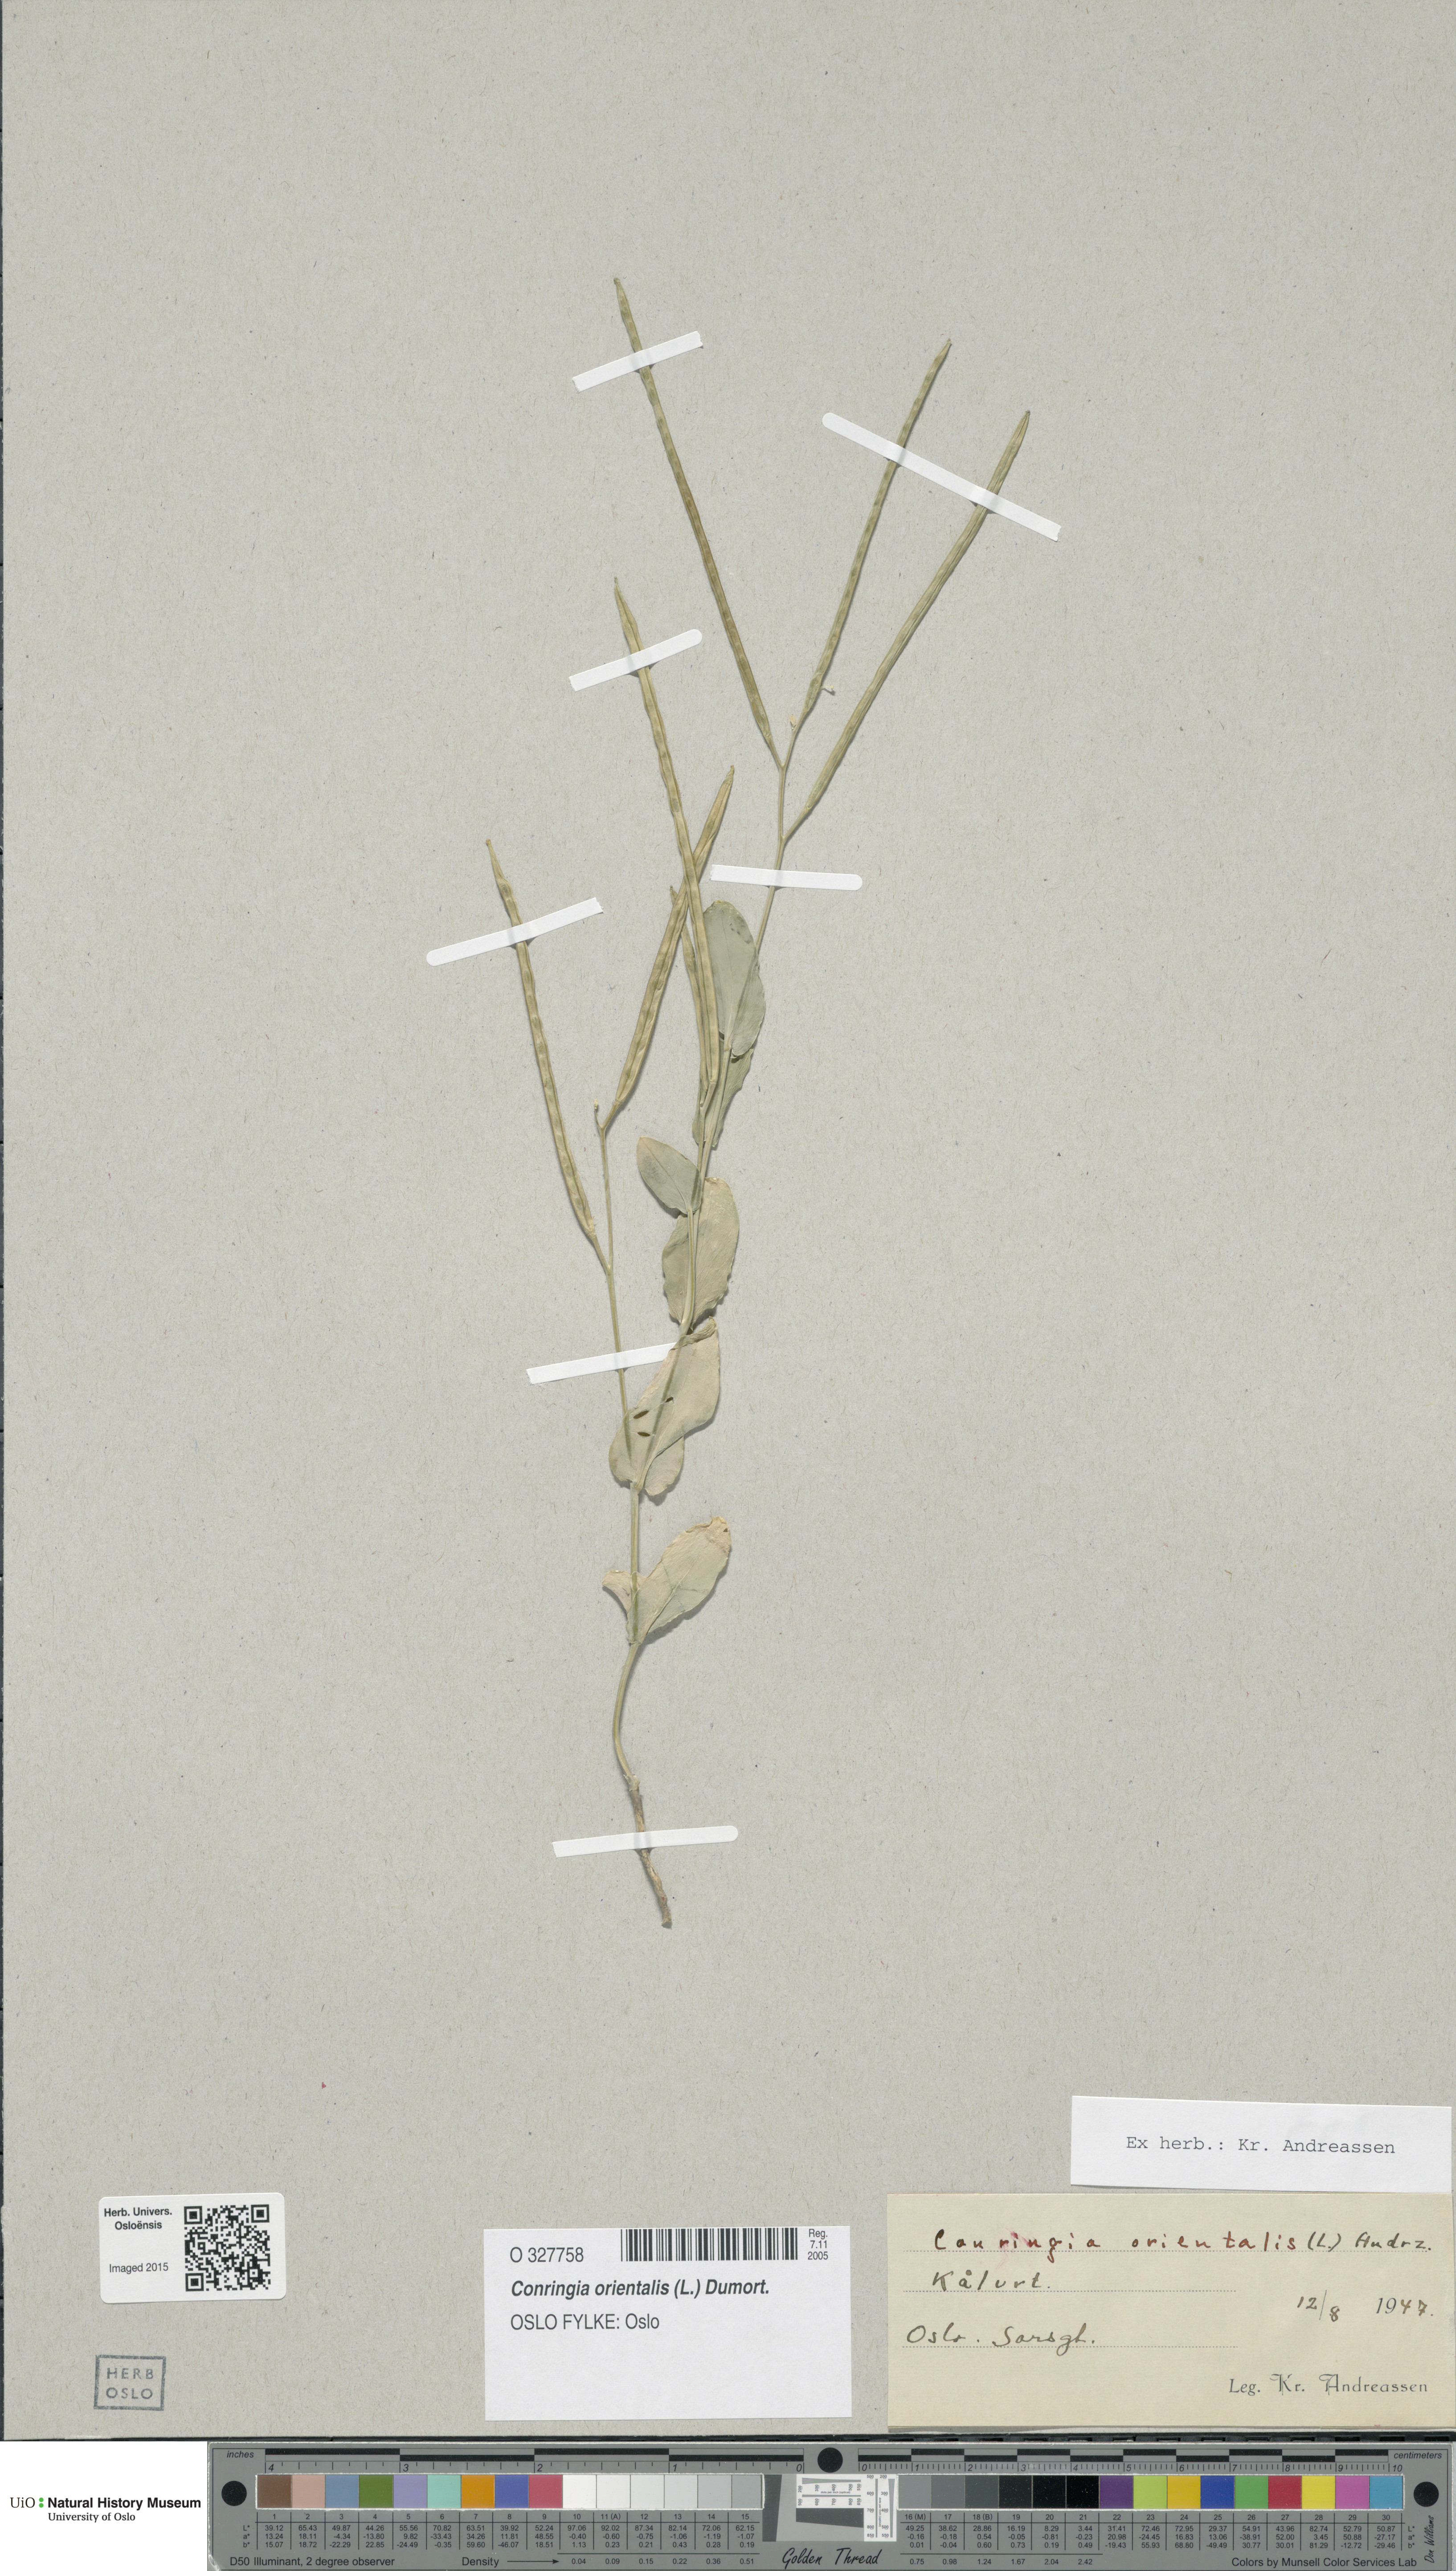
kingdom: Plantae
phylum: Tracheophyta
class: Magnoliopsida
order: Brassicales
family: Brassicaceae
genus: Conringia
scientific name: Conringia orientalis
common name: Hare's ear mustard
